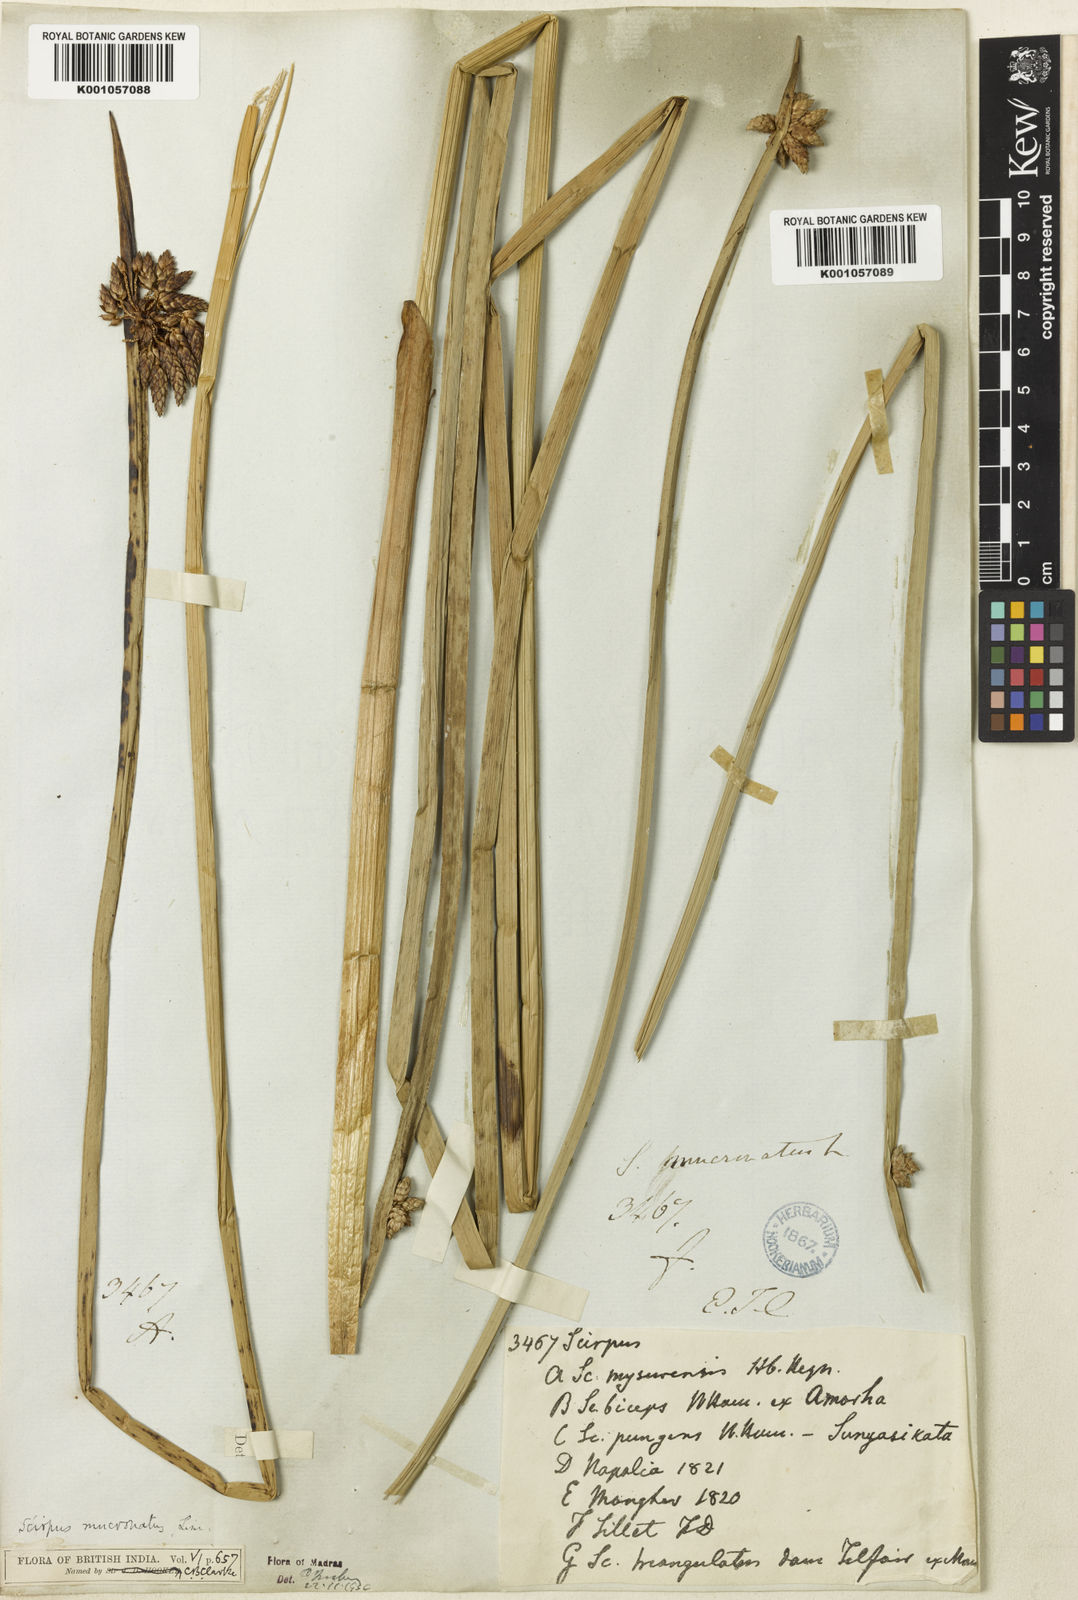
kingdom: Plantae
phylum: Tracheophyta
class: Liliopsida
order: Poales
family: Cyperaceae
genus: Schoenoplectiella
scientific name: Schoenoplectiella mucronata
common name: Bog bulrush
